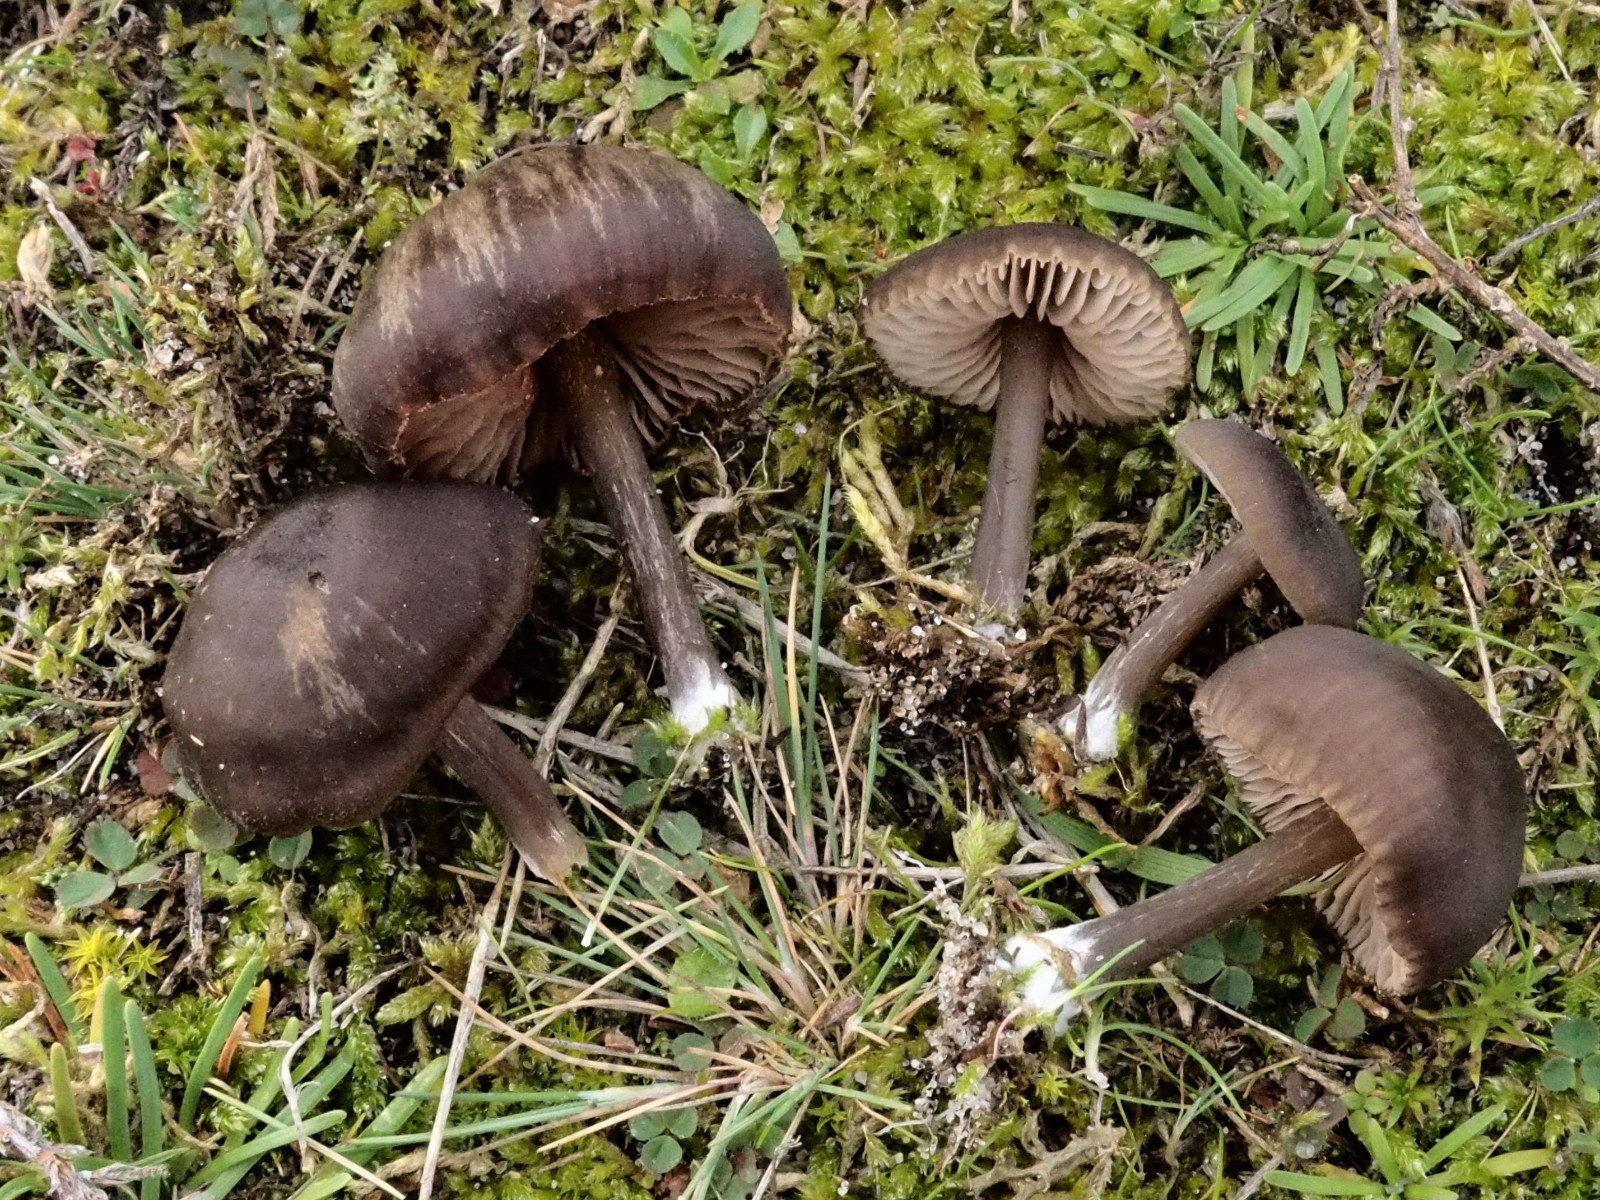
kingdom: Fungi
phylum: Basidiomycota
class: Agaricomycetes
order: Agaricales
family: Entolomataceae
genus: Entoloma
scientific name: Entoloma
